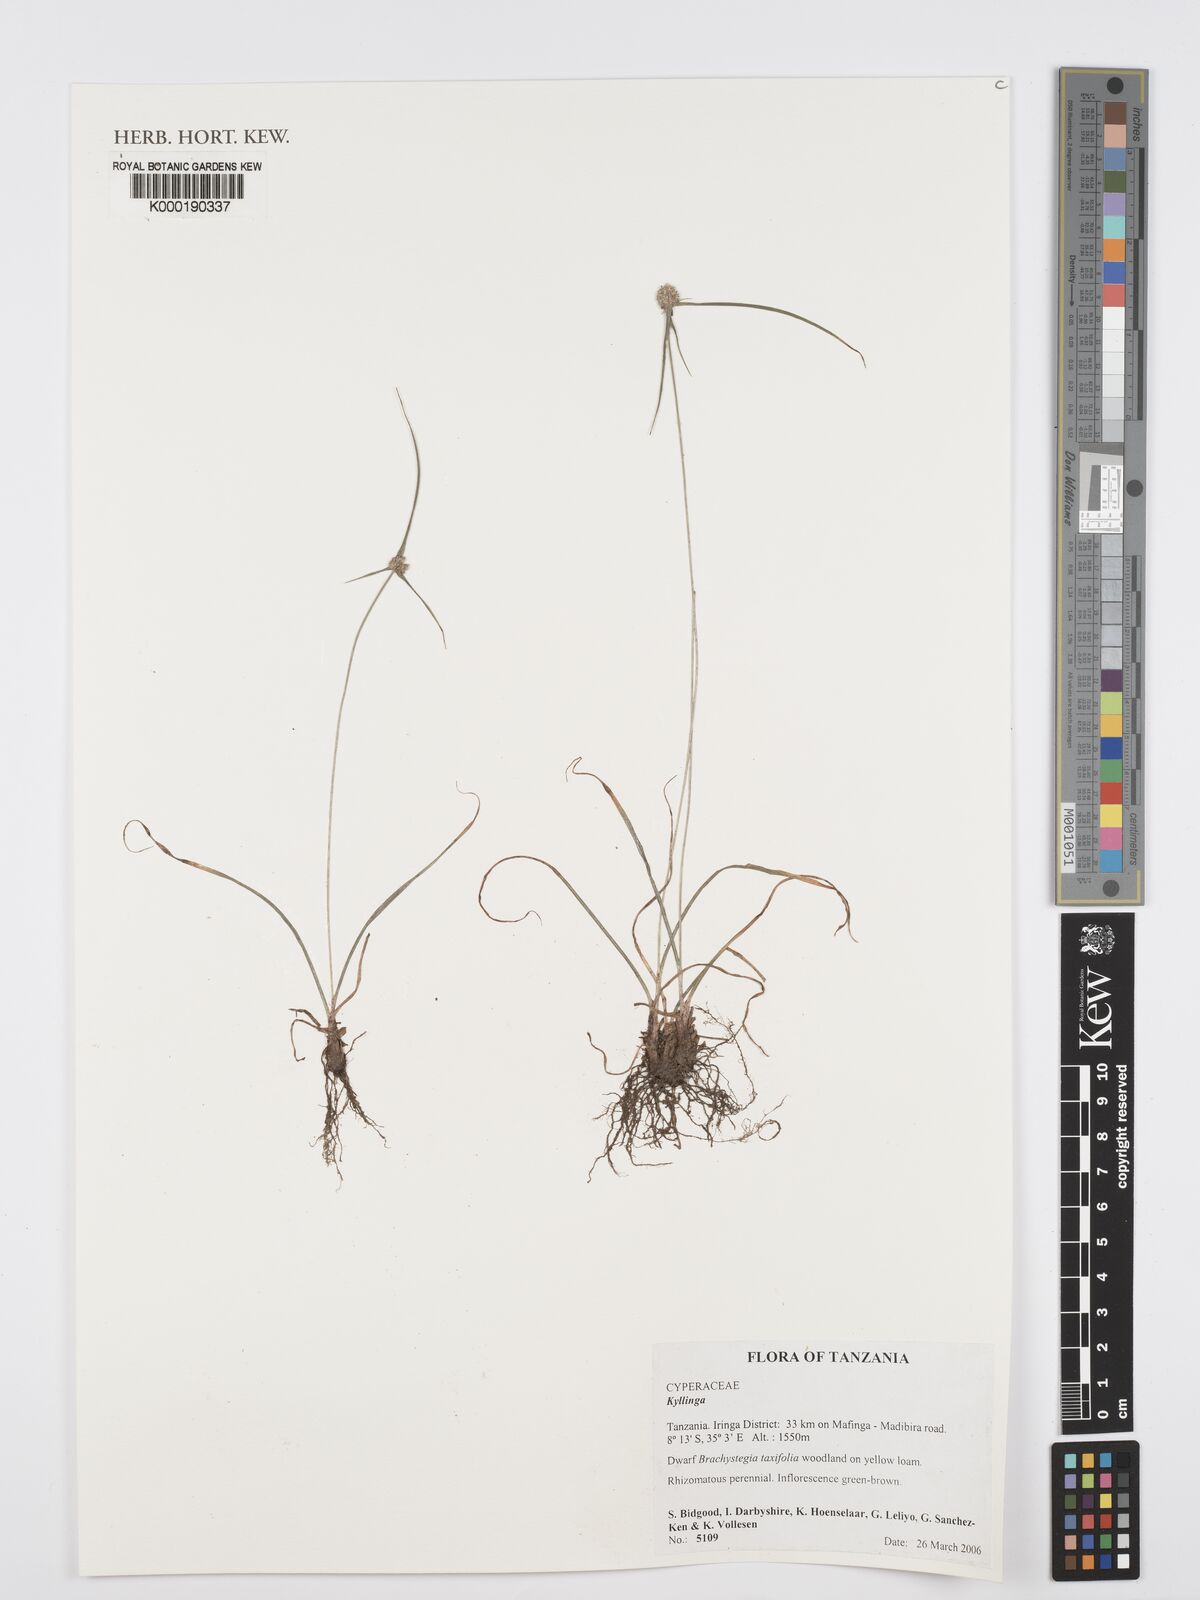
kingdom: Plantae
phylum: Tracheophyta
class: Liliopsida
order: Poales
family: Cyperaceae
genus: Cyperus
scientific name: Cyperus
